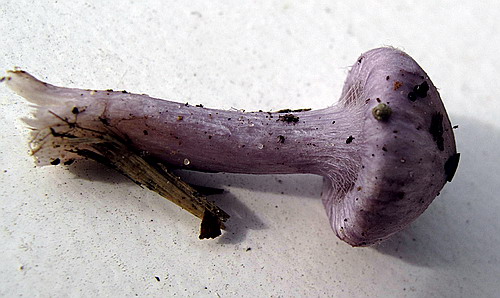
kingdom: Fungi
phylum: Basidiomycota
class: Agaricomycetes
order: Agaricales
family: Inocybaceae
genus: Inocybe
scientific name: Inocybe geophylla
